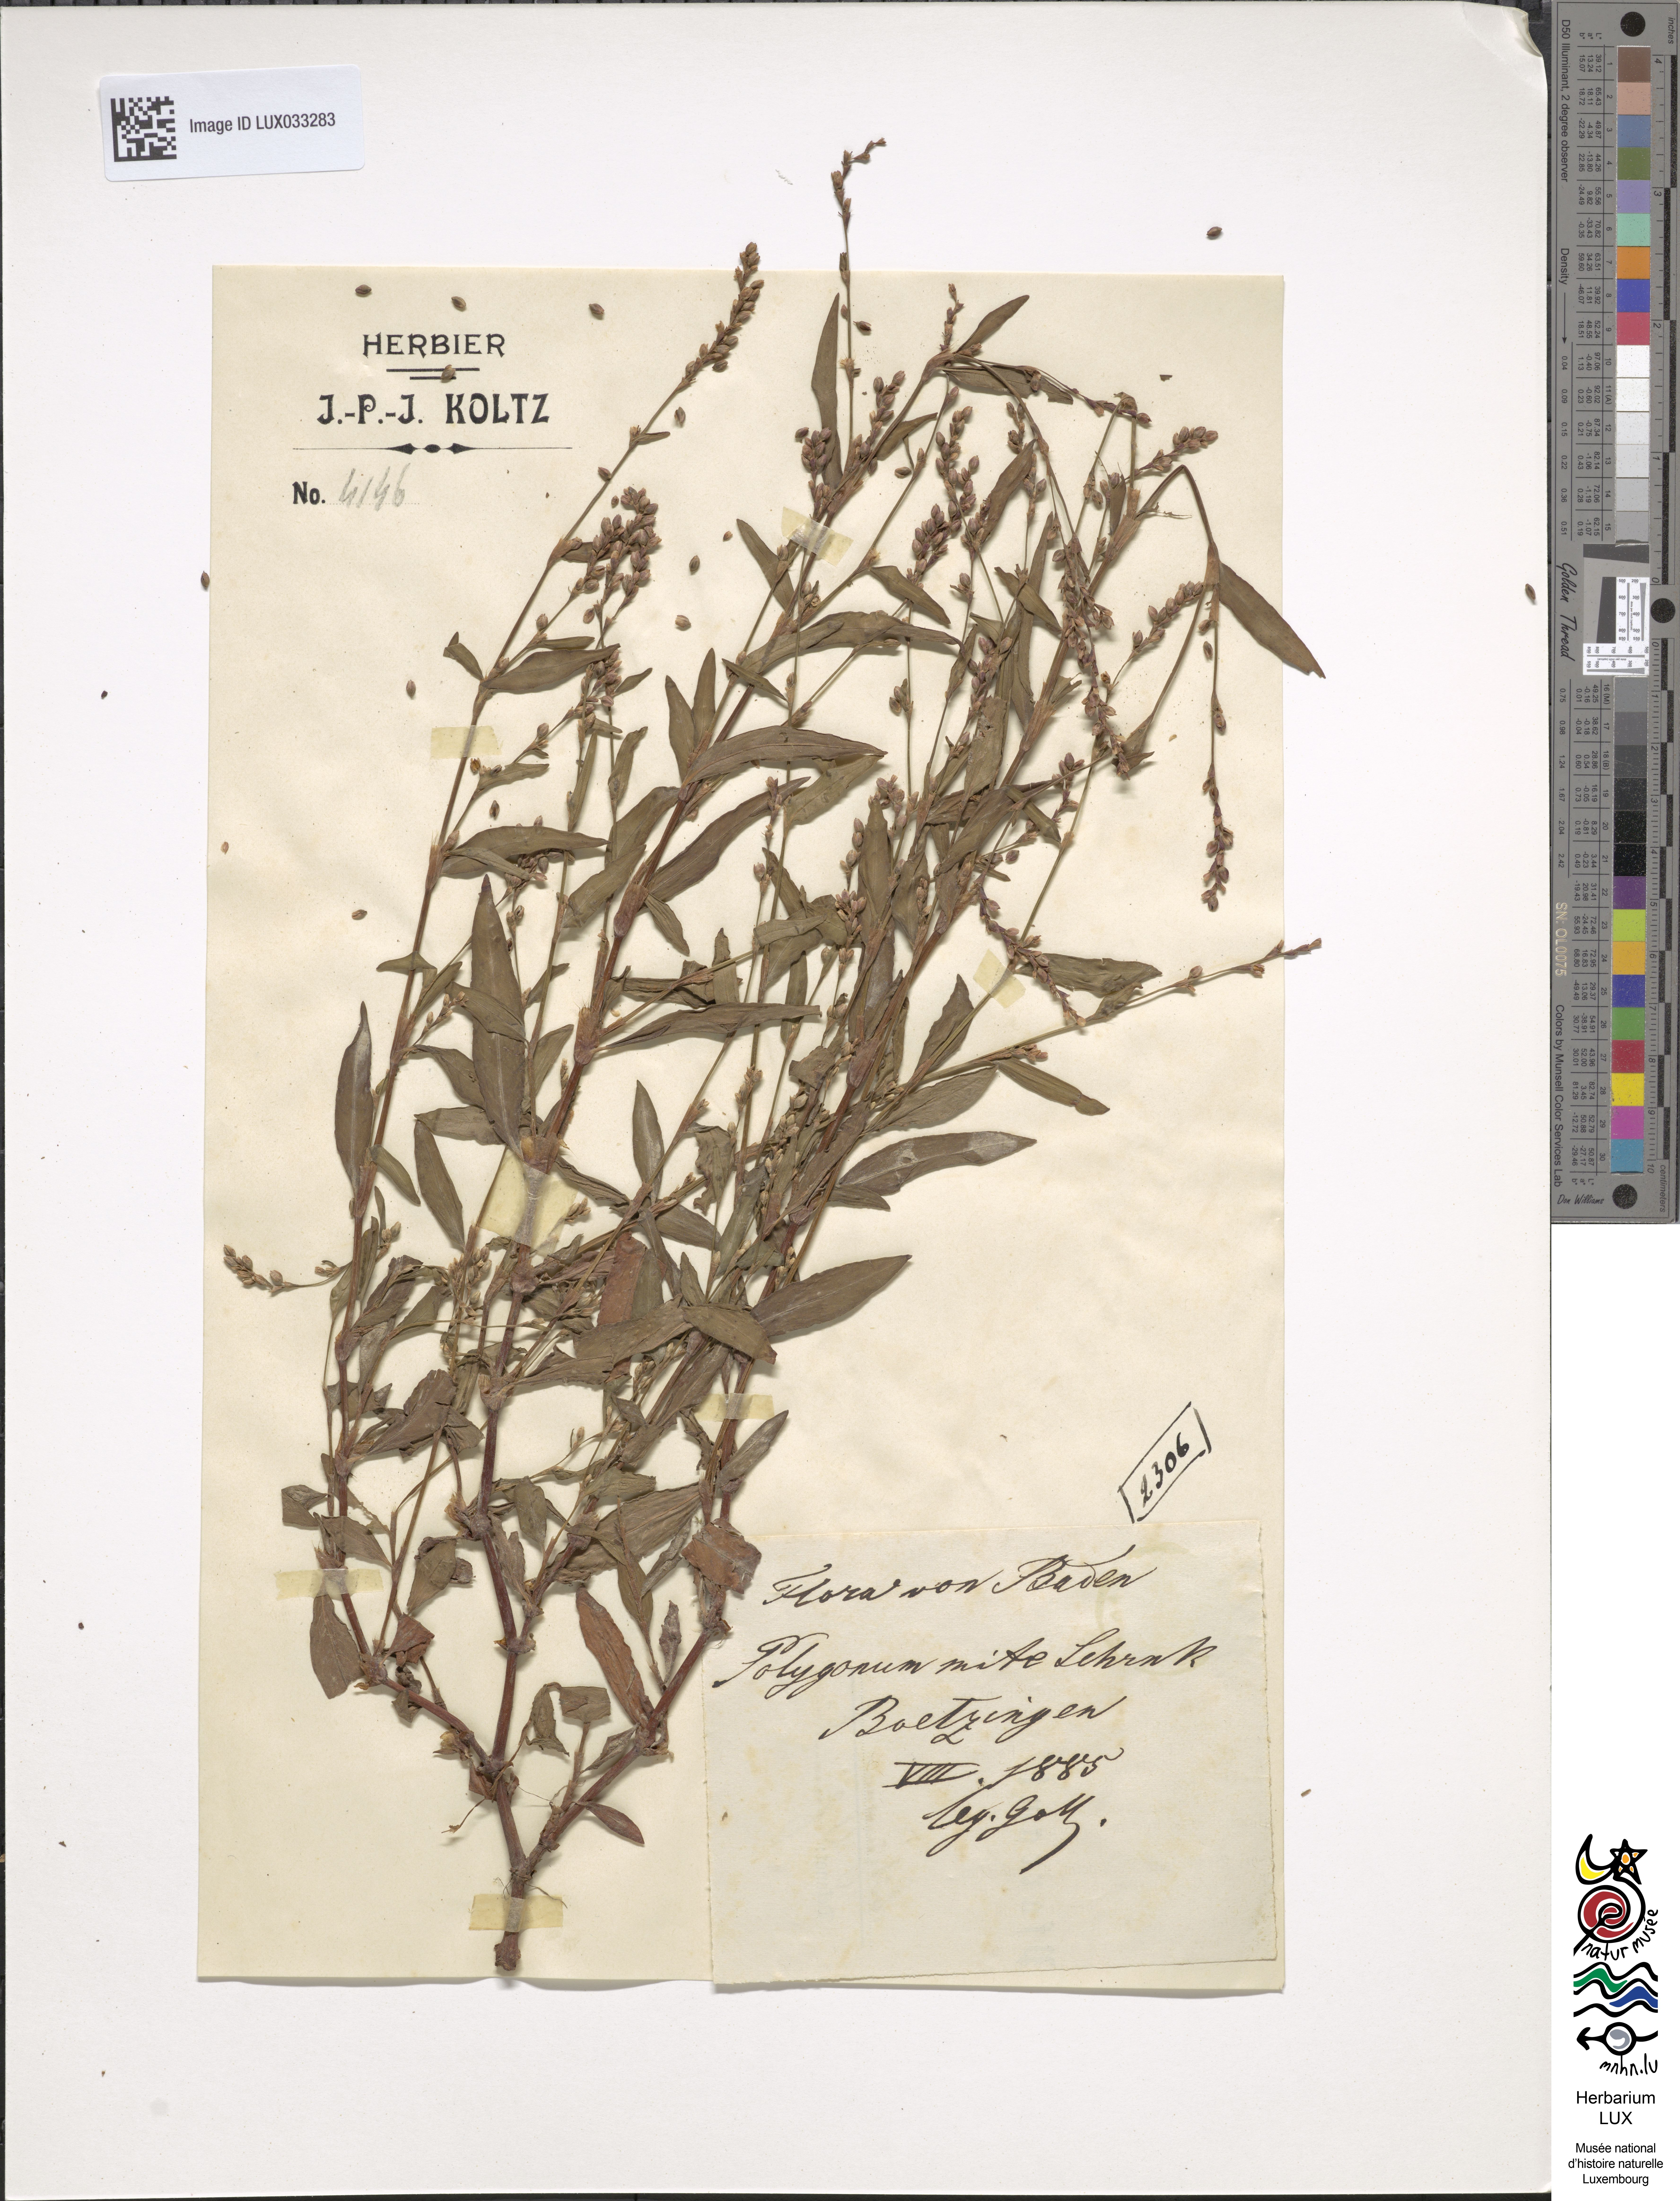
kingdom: Plantae
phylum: Tracheophyta
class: Magnoliopsida
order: Caryophyllales
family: Polygonaceae
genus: Persicaria
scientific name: Persicaria mitis
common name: Tasteless water-pepper
